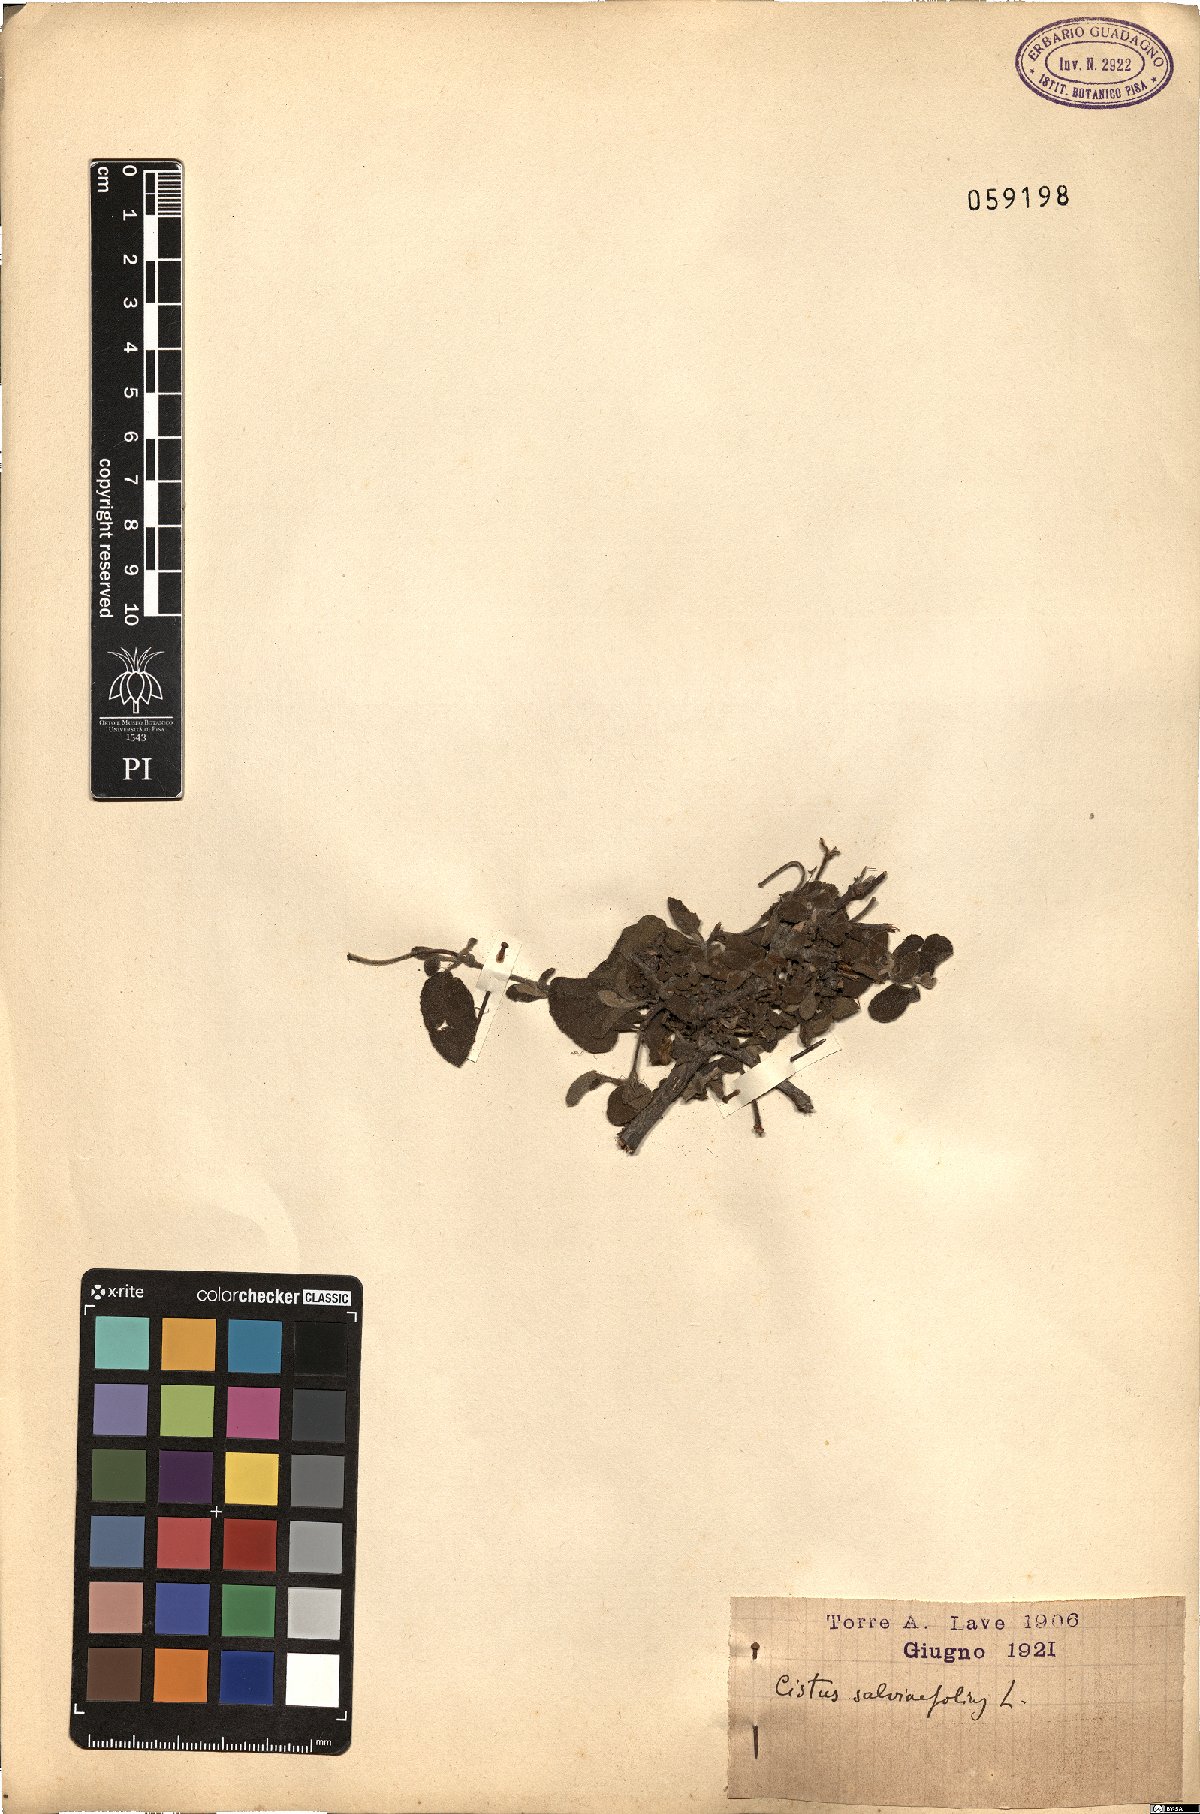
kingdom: Plantae
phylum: Tracheophyta
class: Magnoliopsida
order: Malvales
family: Cistaceae
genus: Cistus
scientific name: Cistus salviifolius
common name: Salvia cistus
